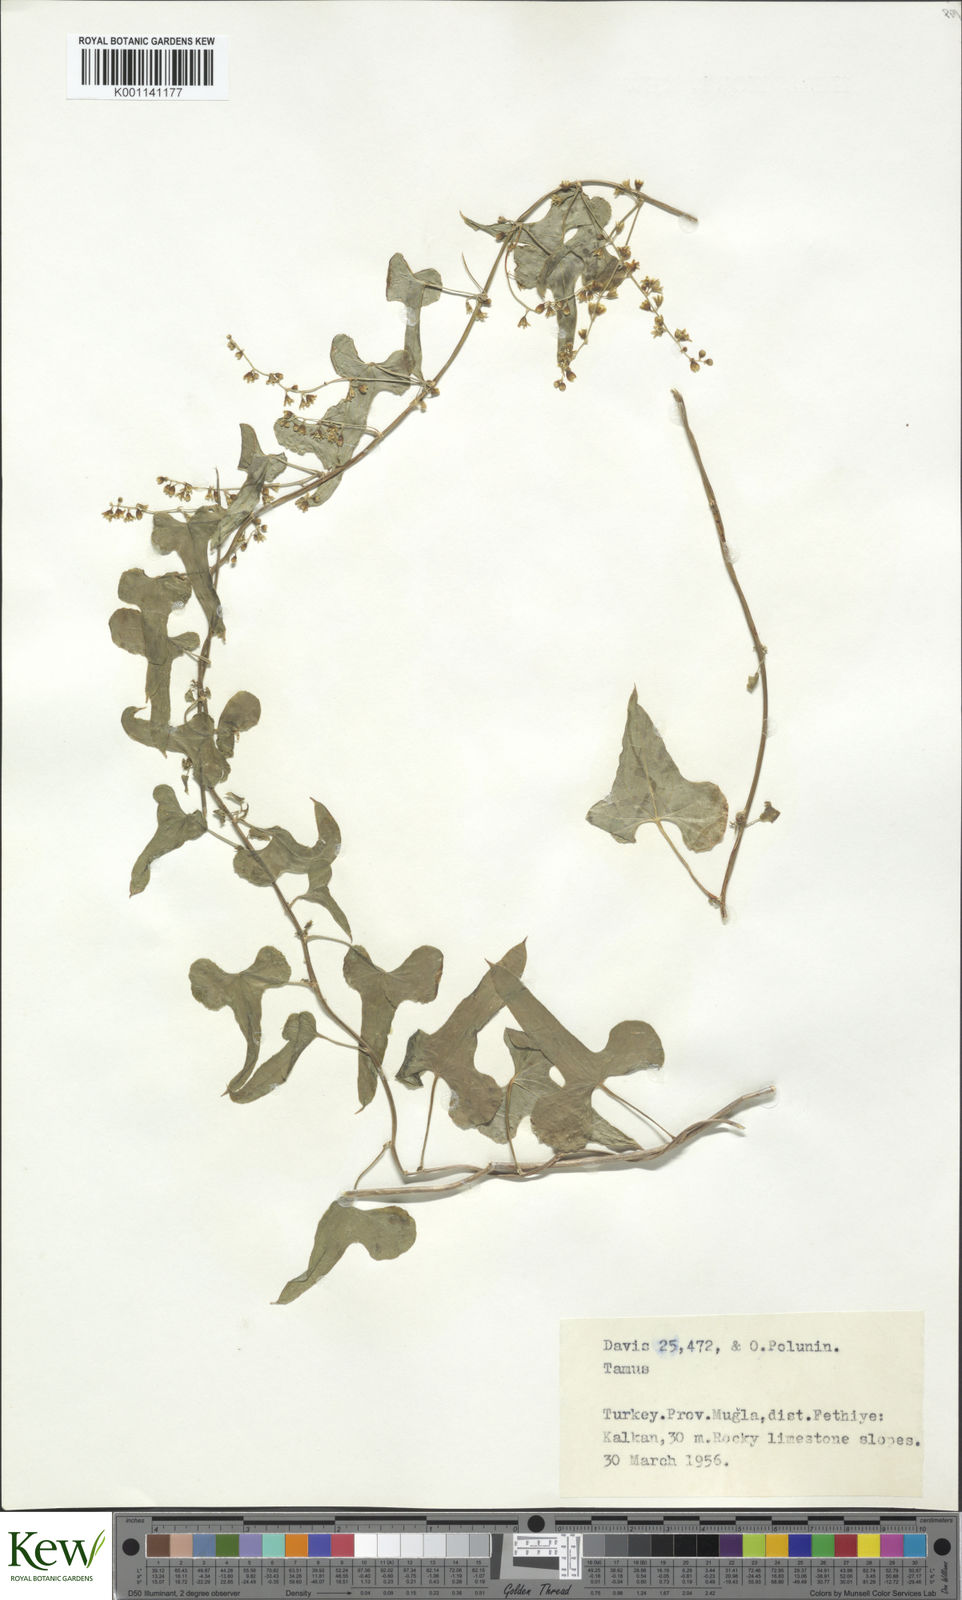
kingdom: Plantae
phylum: Tracheophyta
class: Liliopsida
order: Dioscoreales
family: Dioscoreaceae
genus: Dioscorea
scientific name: Dioscorea communis
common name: Black-bindweed
